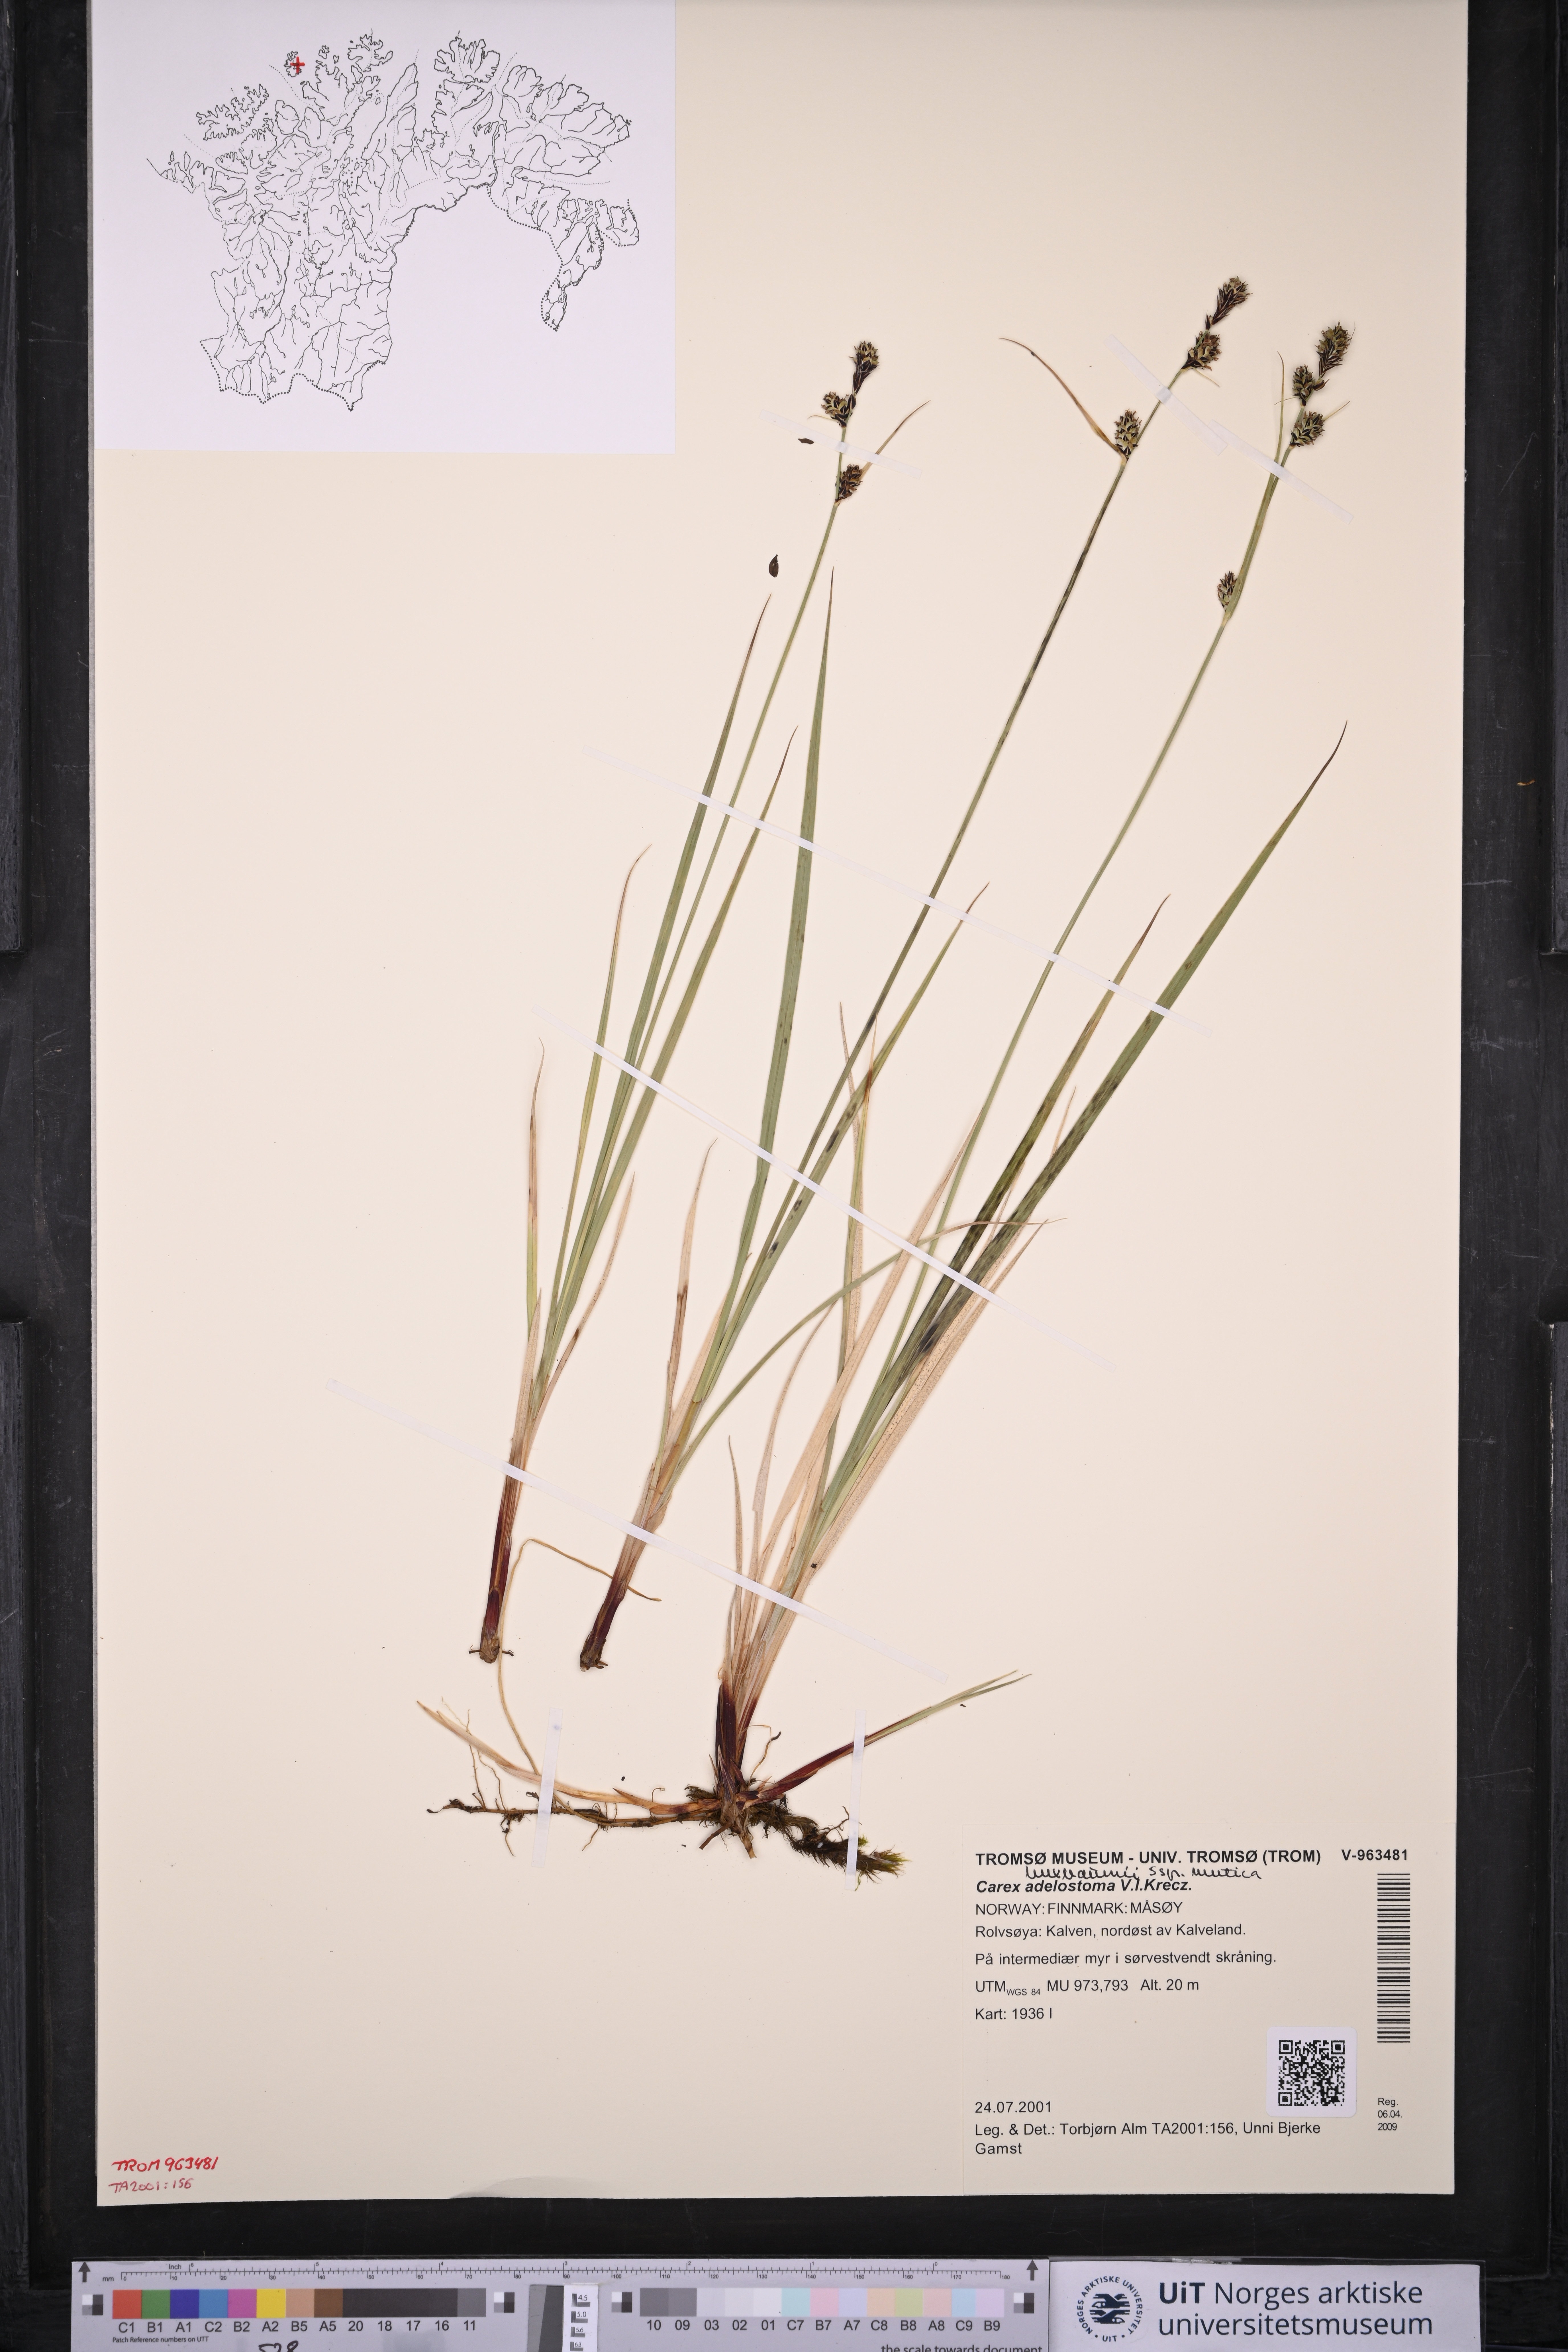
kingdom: Plantae
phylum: Tracheophyta
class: Liliopsida
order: Poales
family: Cyperaceae
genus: Carex
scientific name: Carex adelostoma
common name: Circumpolar sedge
